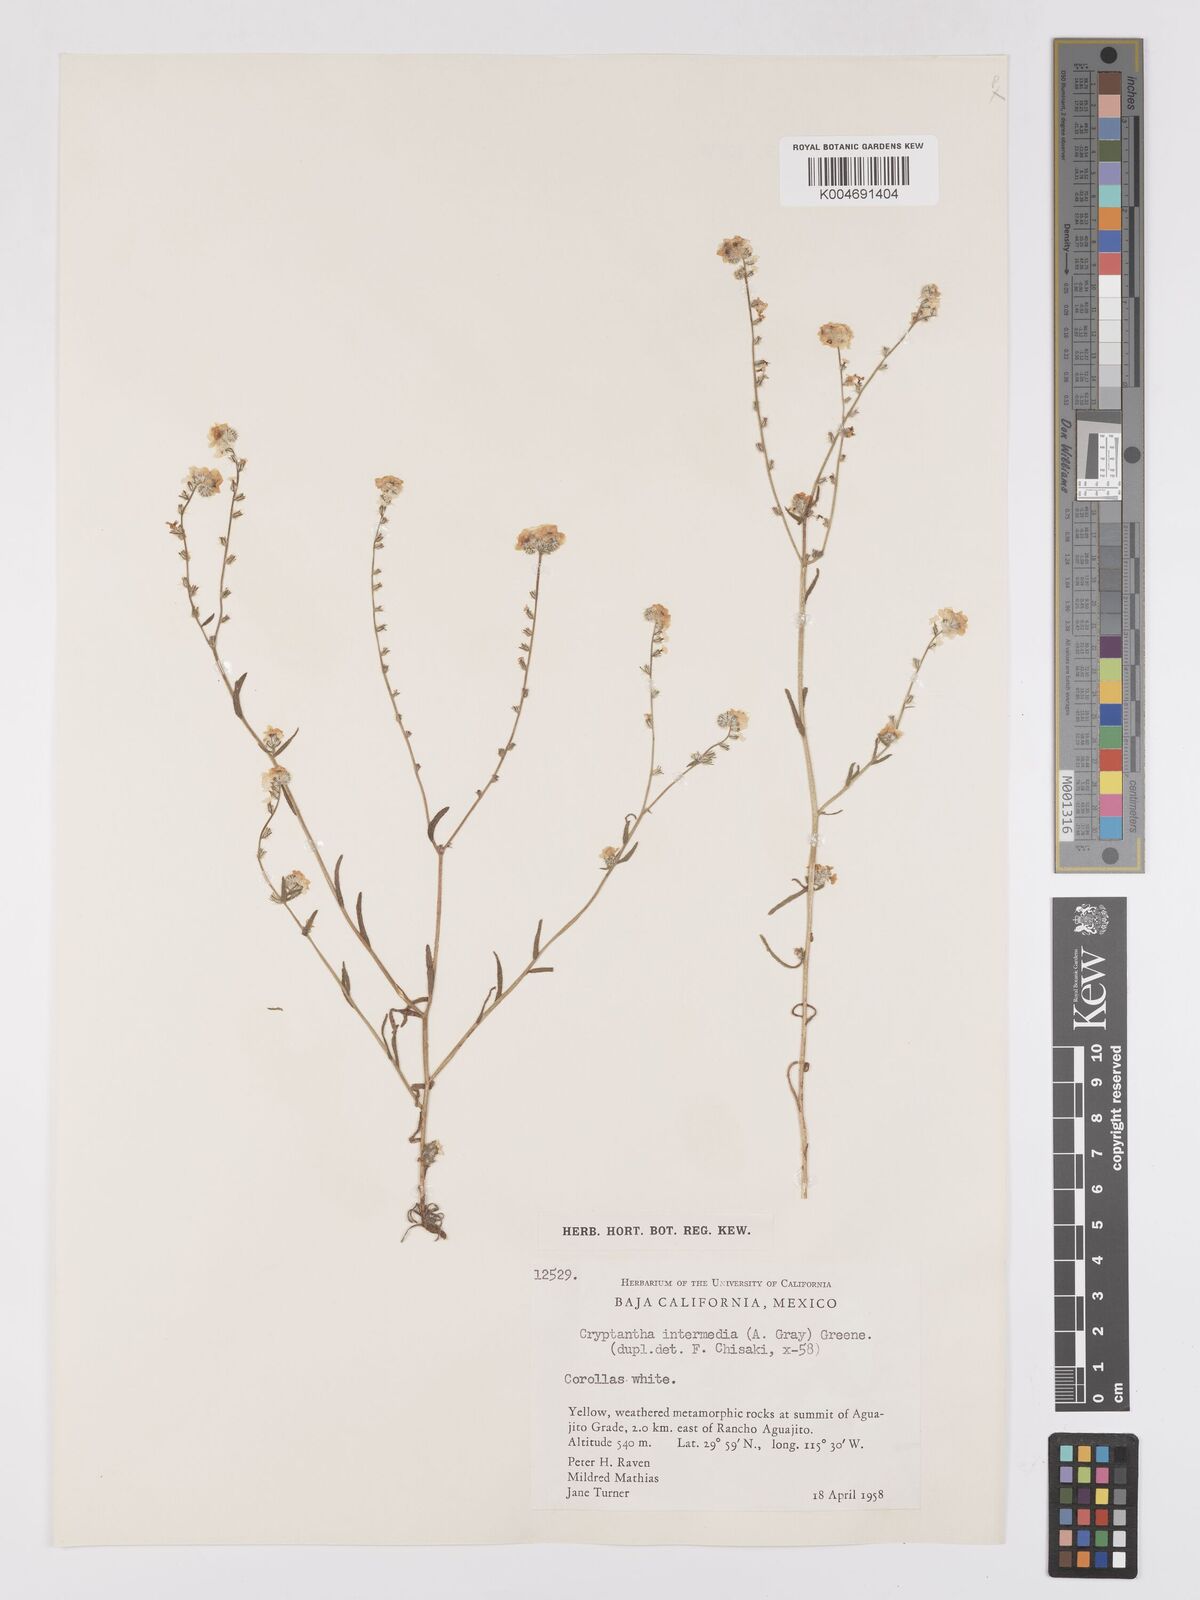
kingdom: Plantae
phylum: Tracheophyta
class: Magnoliopsida
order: Boraginales
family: Boraginaceae
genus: Cryptantha
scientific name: Cryptantha intermedia
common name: Clearwater cryptantha
